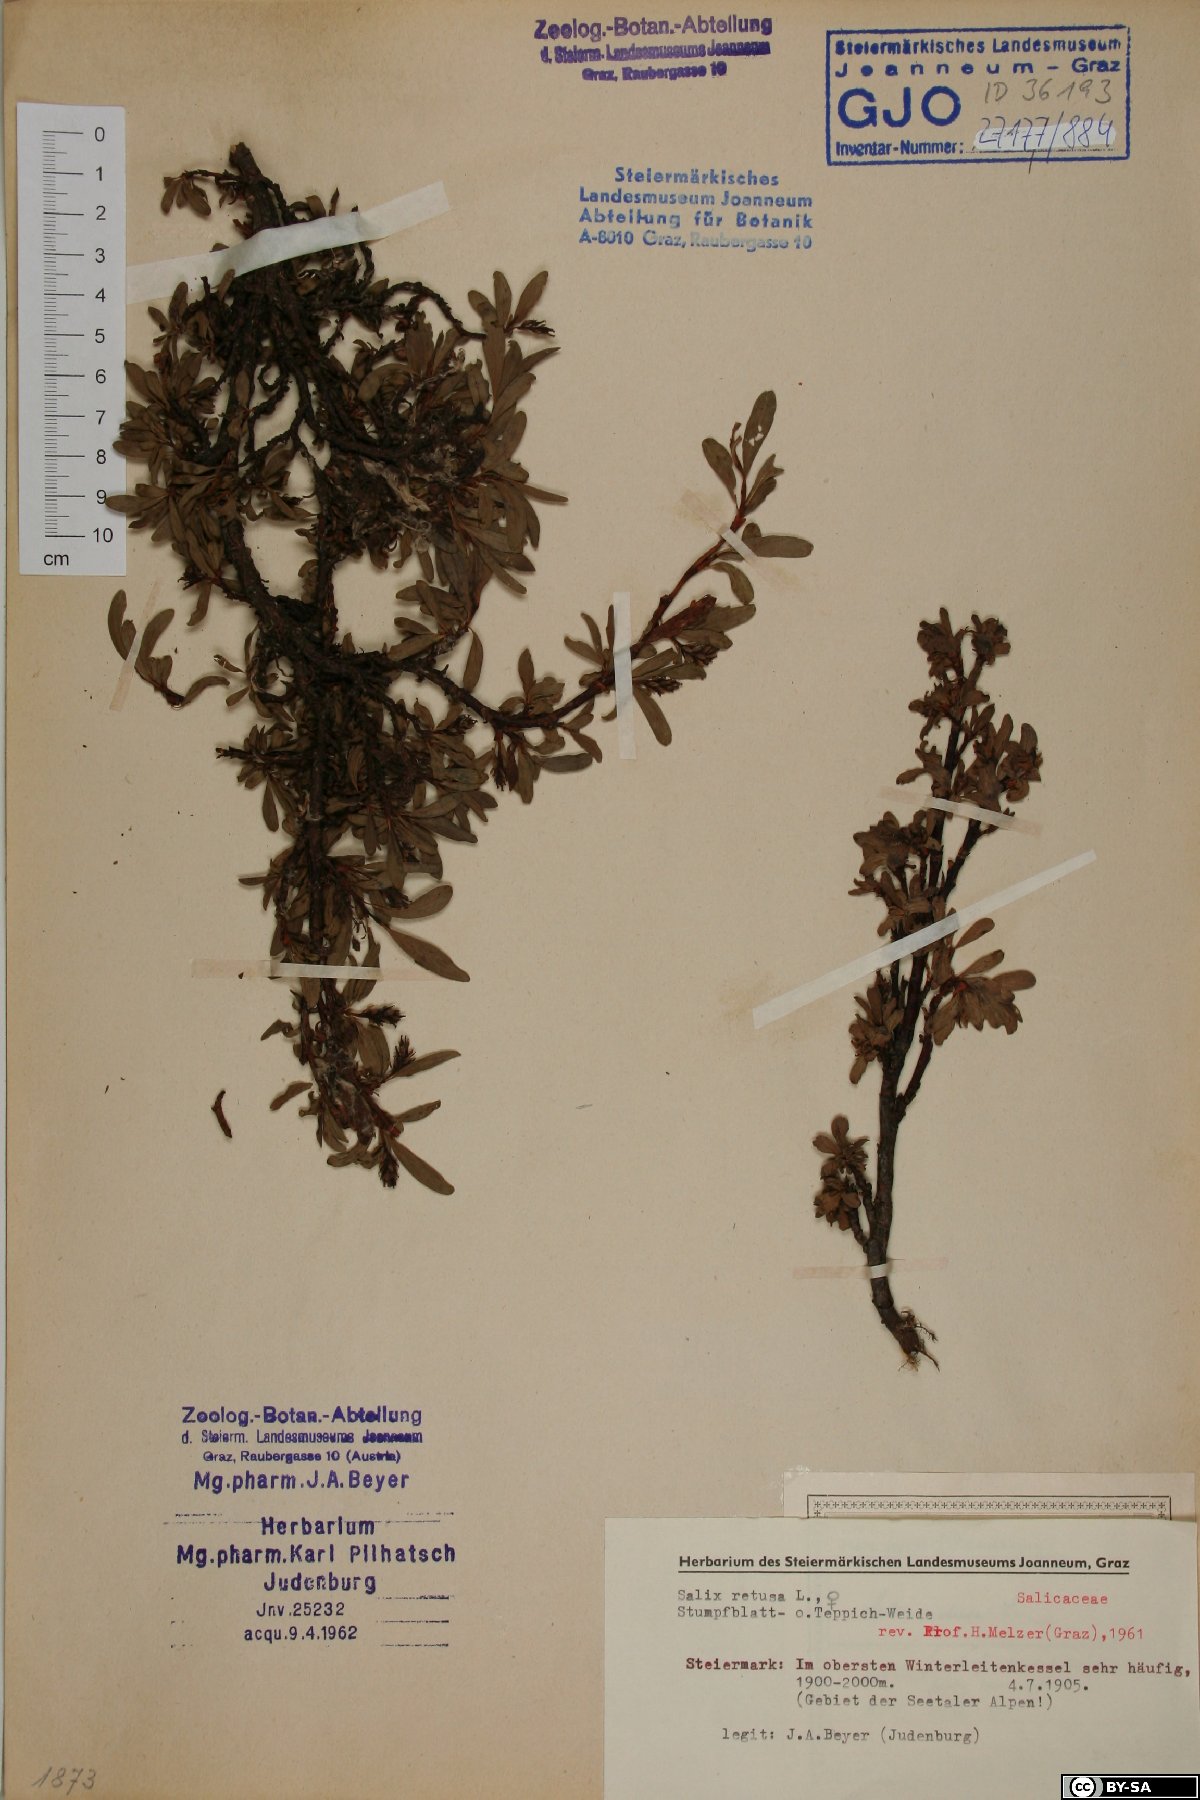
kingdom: Plantae
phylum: Tracheophyta
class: Magnoliopsida
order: Malpighiales
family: Salicaceae
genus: Salix
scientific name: Salix retusa
